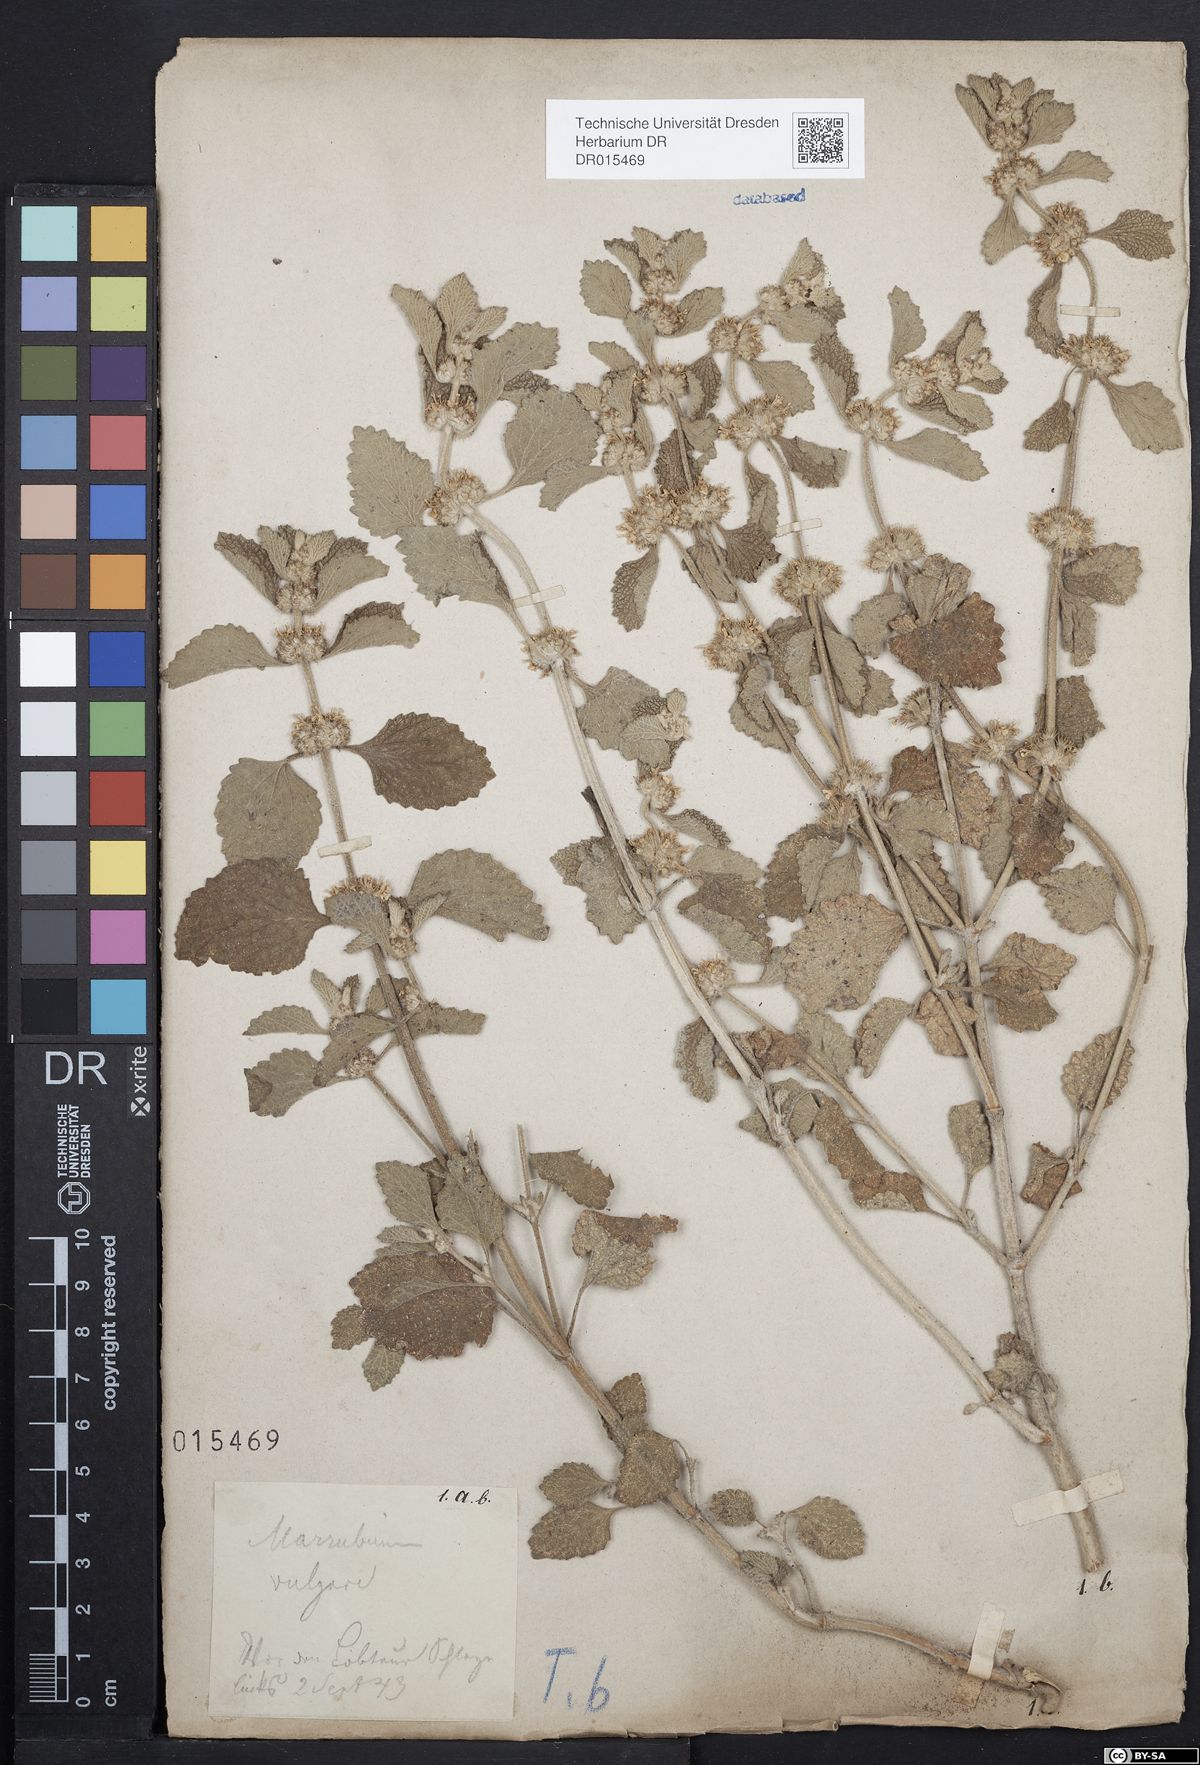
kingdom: Plantae
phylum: Tracheophyta
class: Magnoliopsida
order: Lamiales
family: Lamiaceae
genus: Marrubium
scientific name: Marrubium vulgare
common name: Horehound
